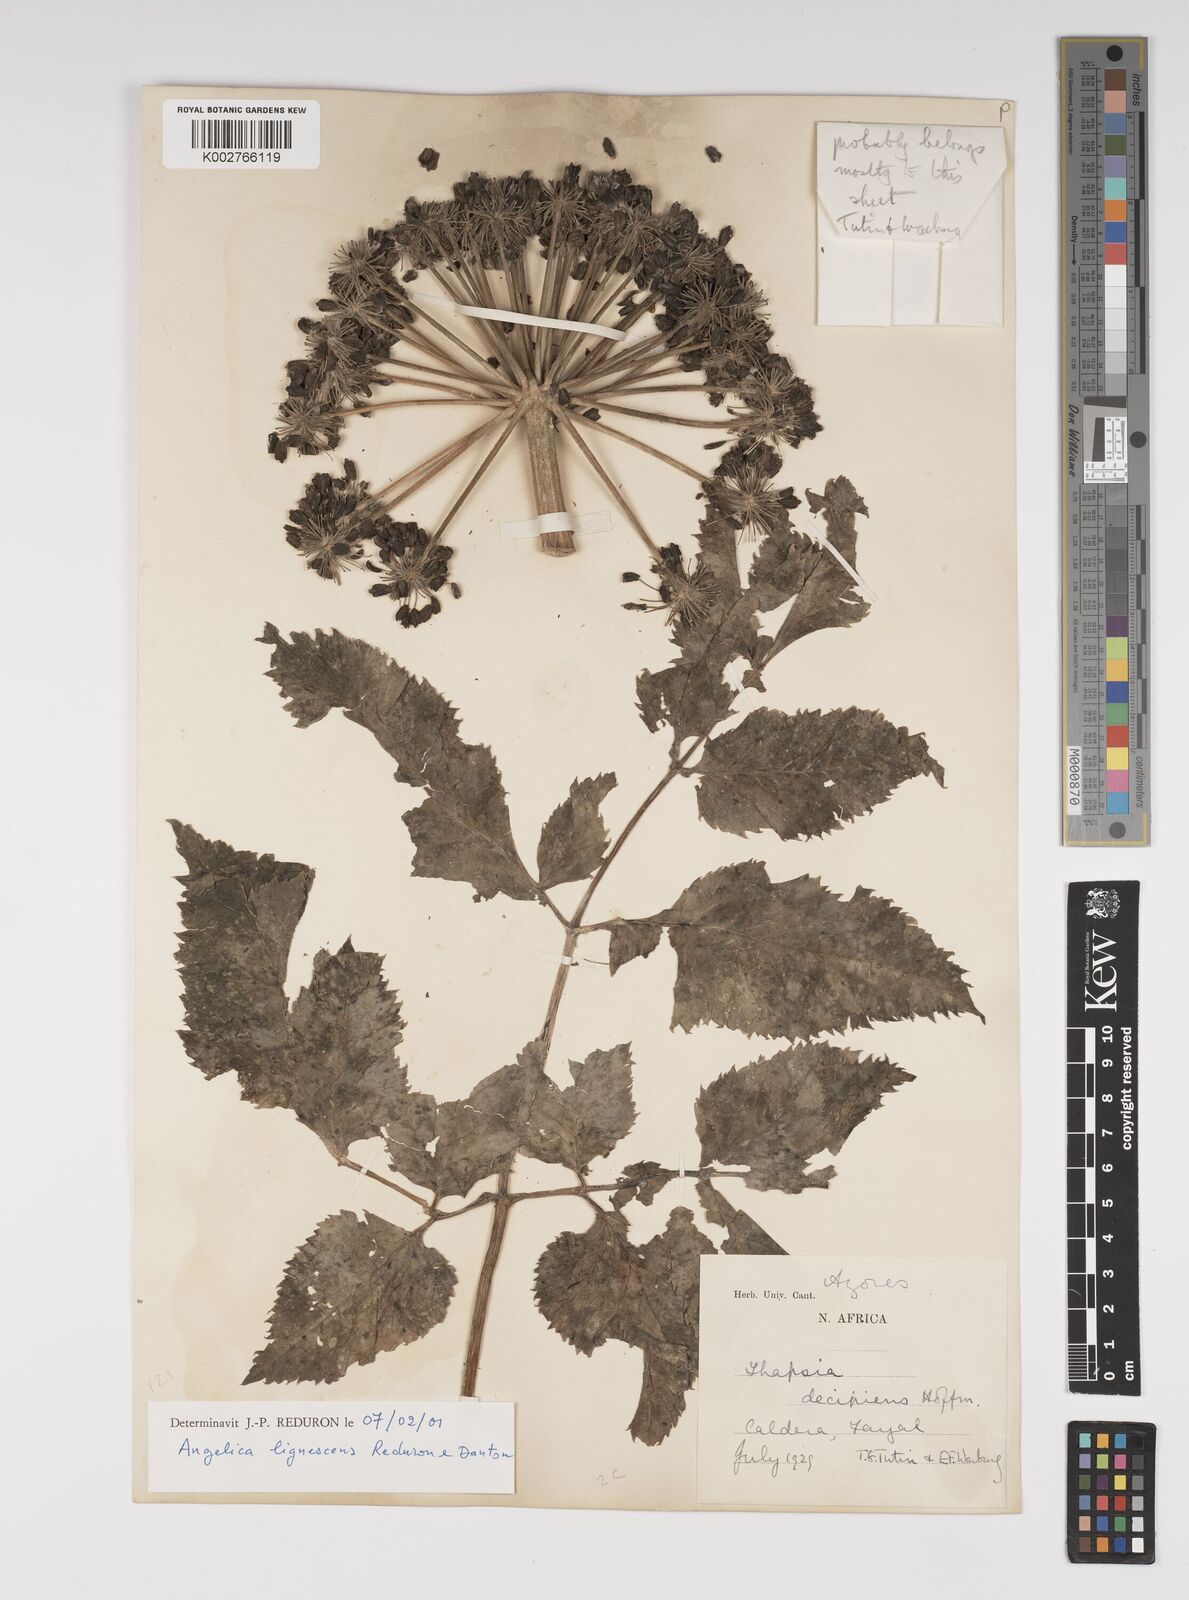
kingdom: Plantae
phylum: Tracheophyta
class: Magnoliopsida
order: Apiales
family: Apiaceae
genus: Angelica
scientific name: Angelica lignescens
